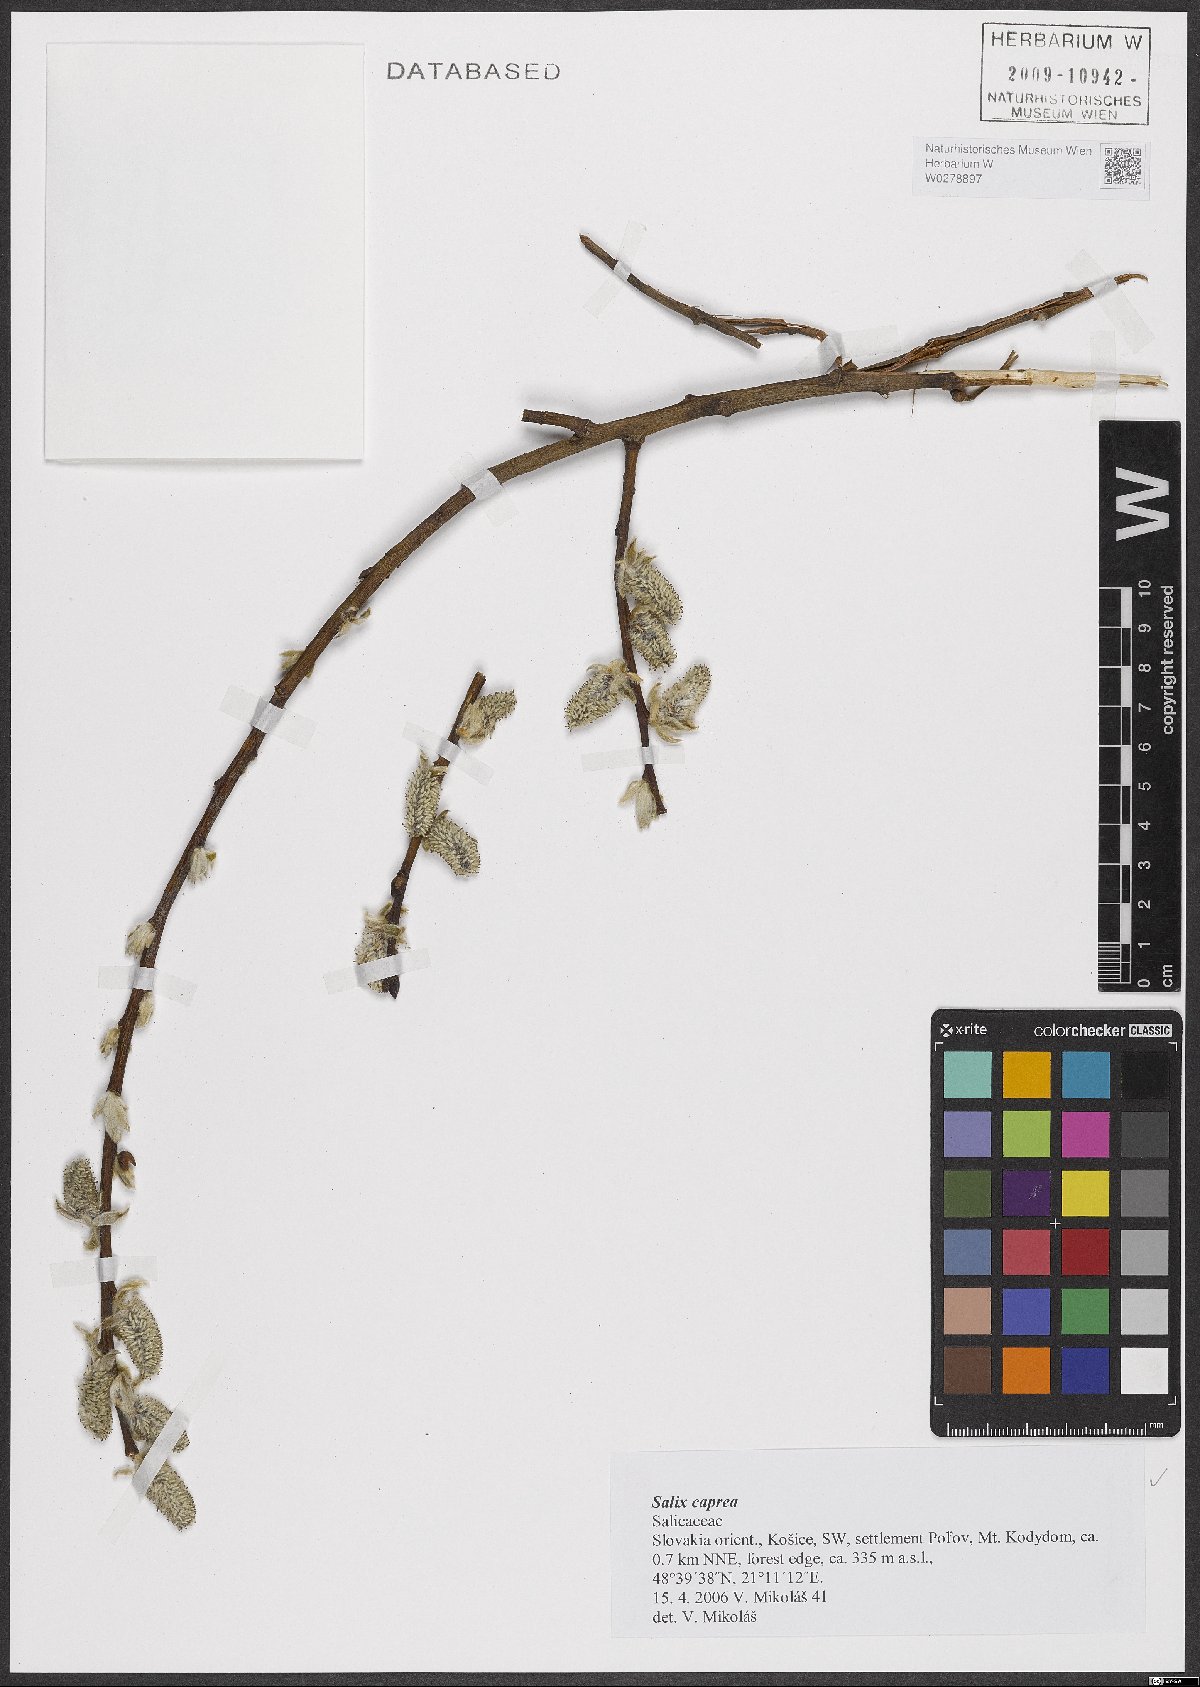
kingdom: Plantae
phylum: Tracheophyta
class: Magnoliopsida
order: Malpighiales
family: Salicaceae
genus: Salix
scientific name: Salix caprea
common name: Goat willow
